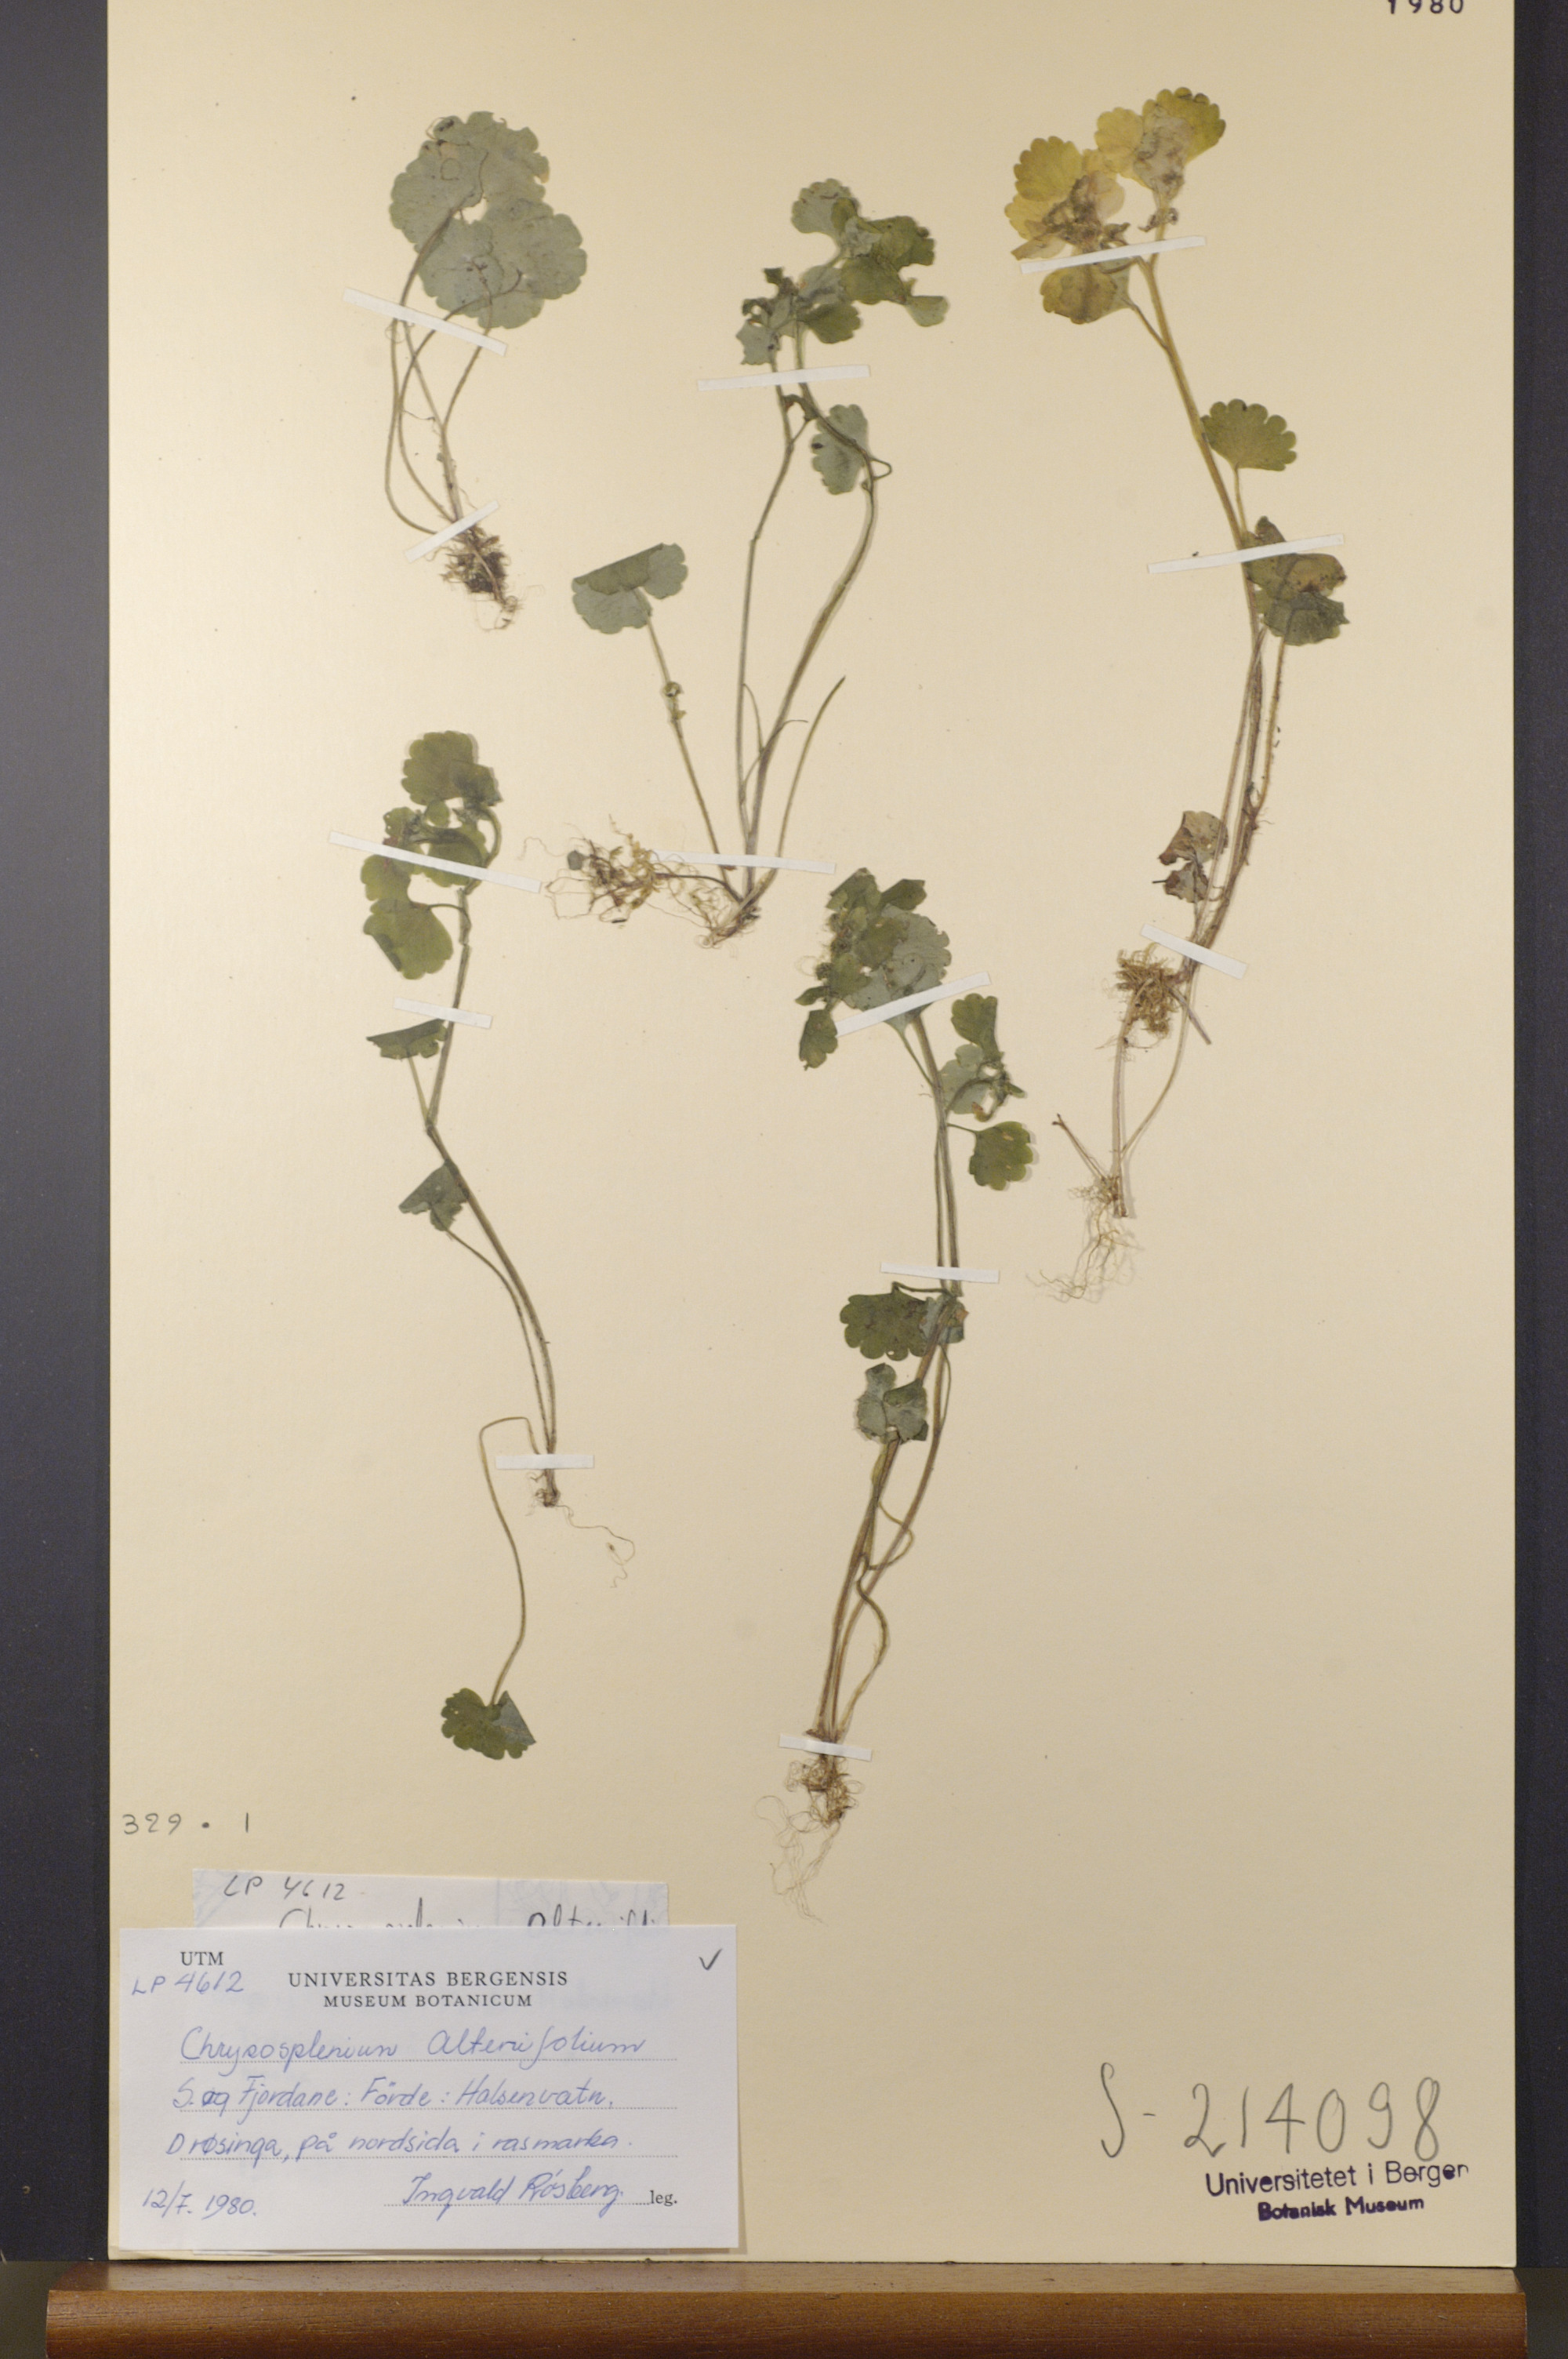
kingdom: Plantae
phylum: Tracheophyta
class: Magnoliopsida
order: Saxifragales
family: Saxifragaceae
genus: Chrysosplenium
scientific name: Chrysosplenium alternifolium
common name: Alternate-leaved golden-saxifrage
